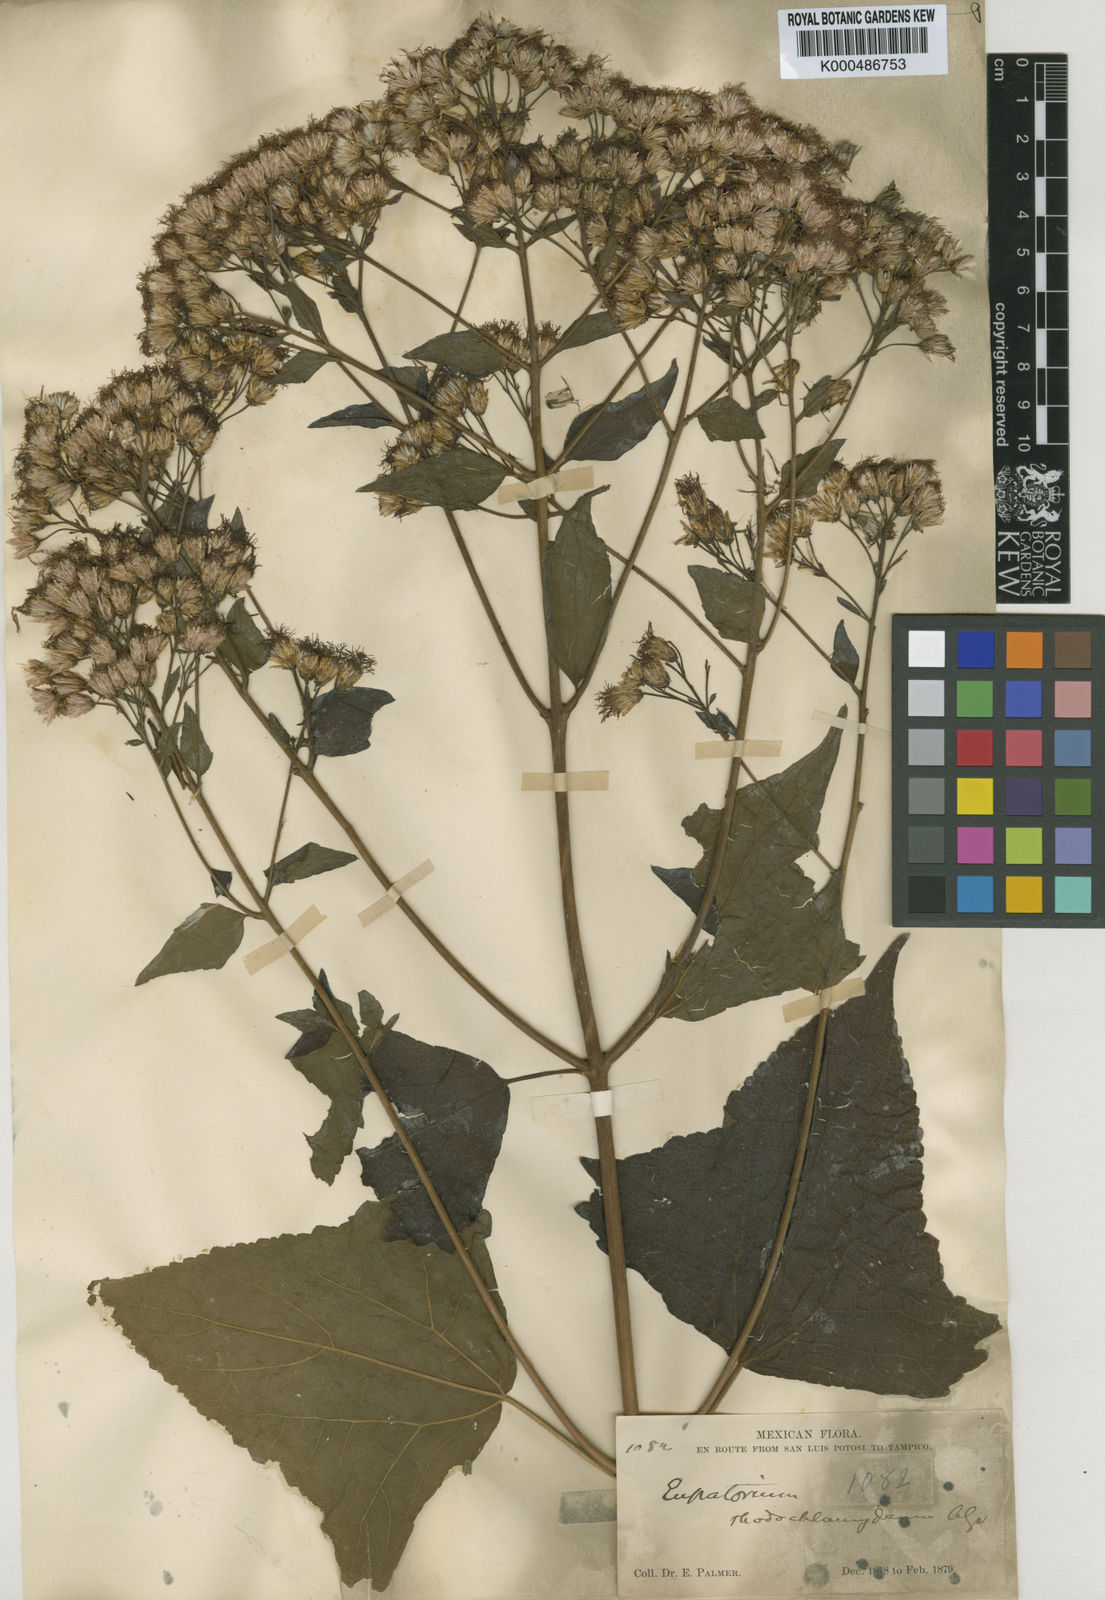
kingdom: Plantae
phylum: Tracheophyta
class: Magnoliopsida
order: Asterales
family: Asteraceae
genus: Peteravenia
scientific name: Peteravenia malvifolia
